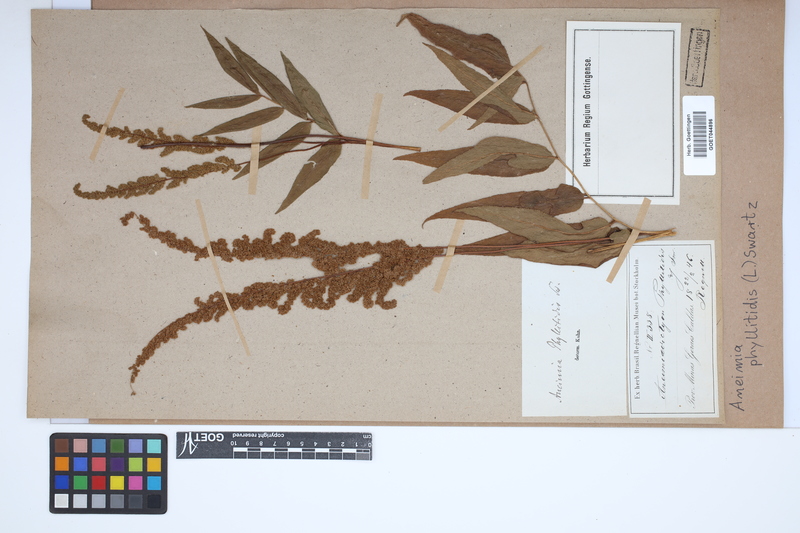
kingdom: Plantae
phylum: Tracheophyta
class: Polypodiopsida
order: Schizaeales
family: Anemiaceae
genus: Anemia
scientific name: Anemia phyllitidis
